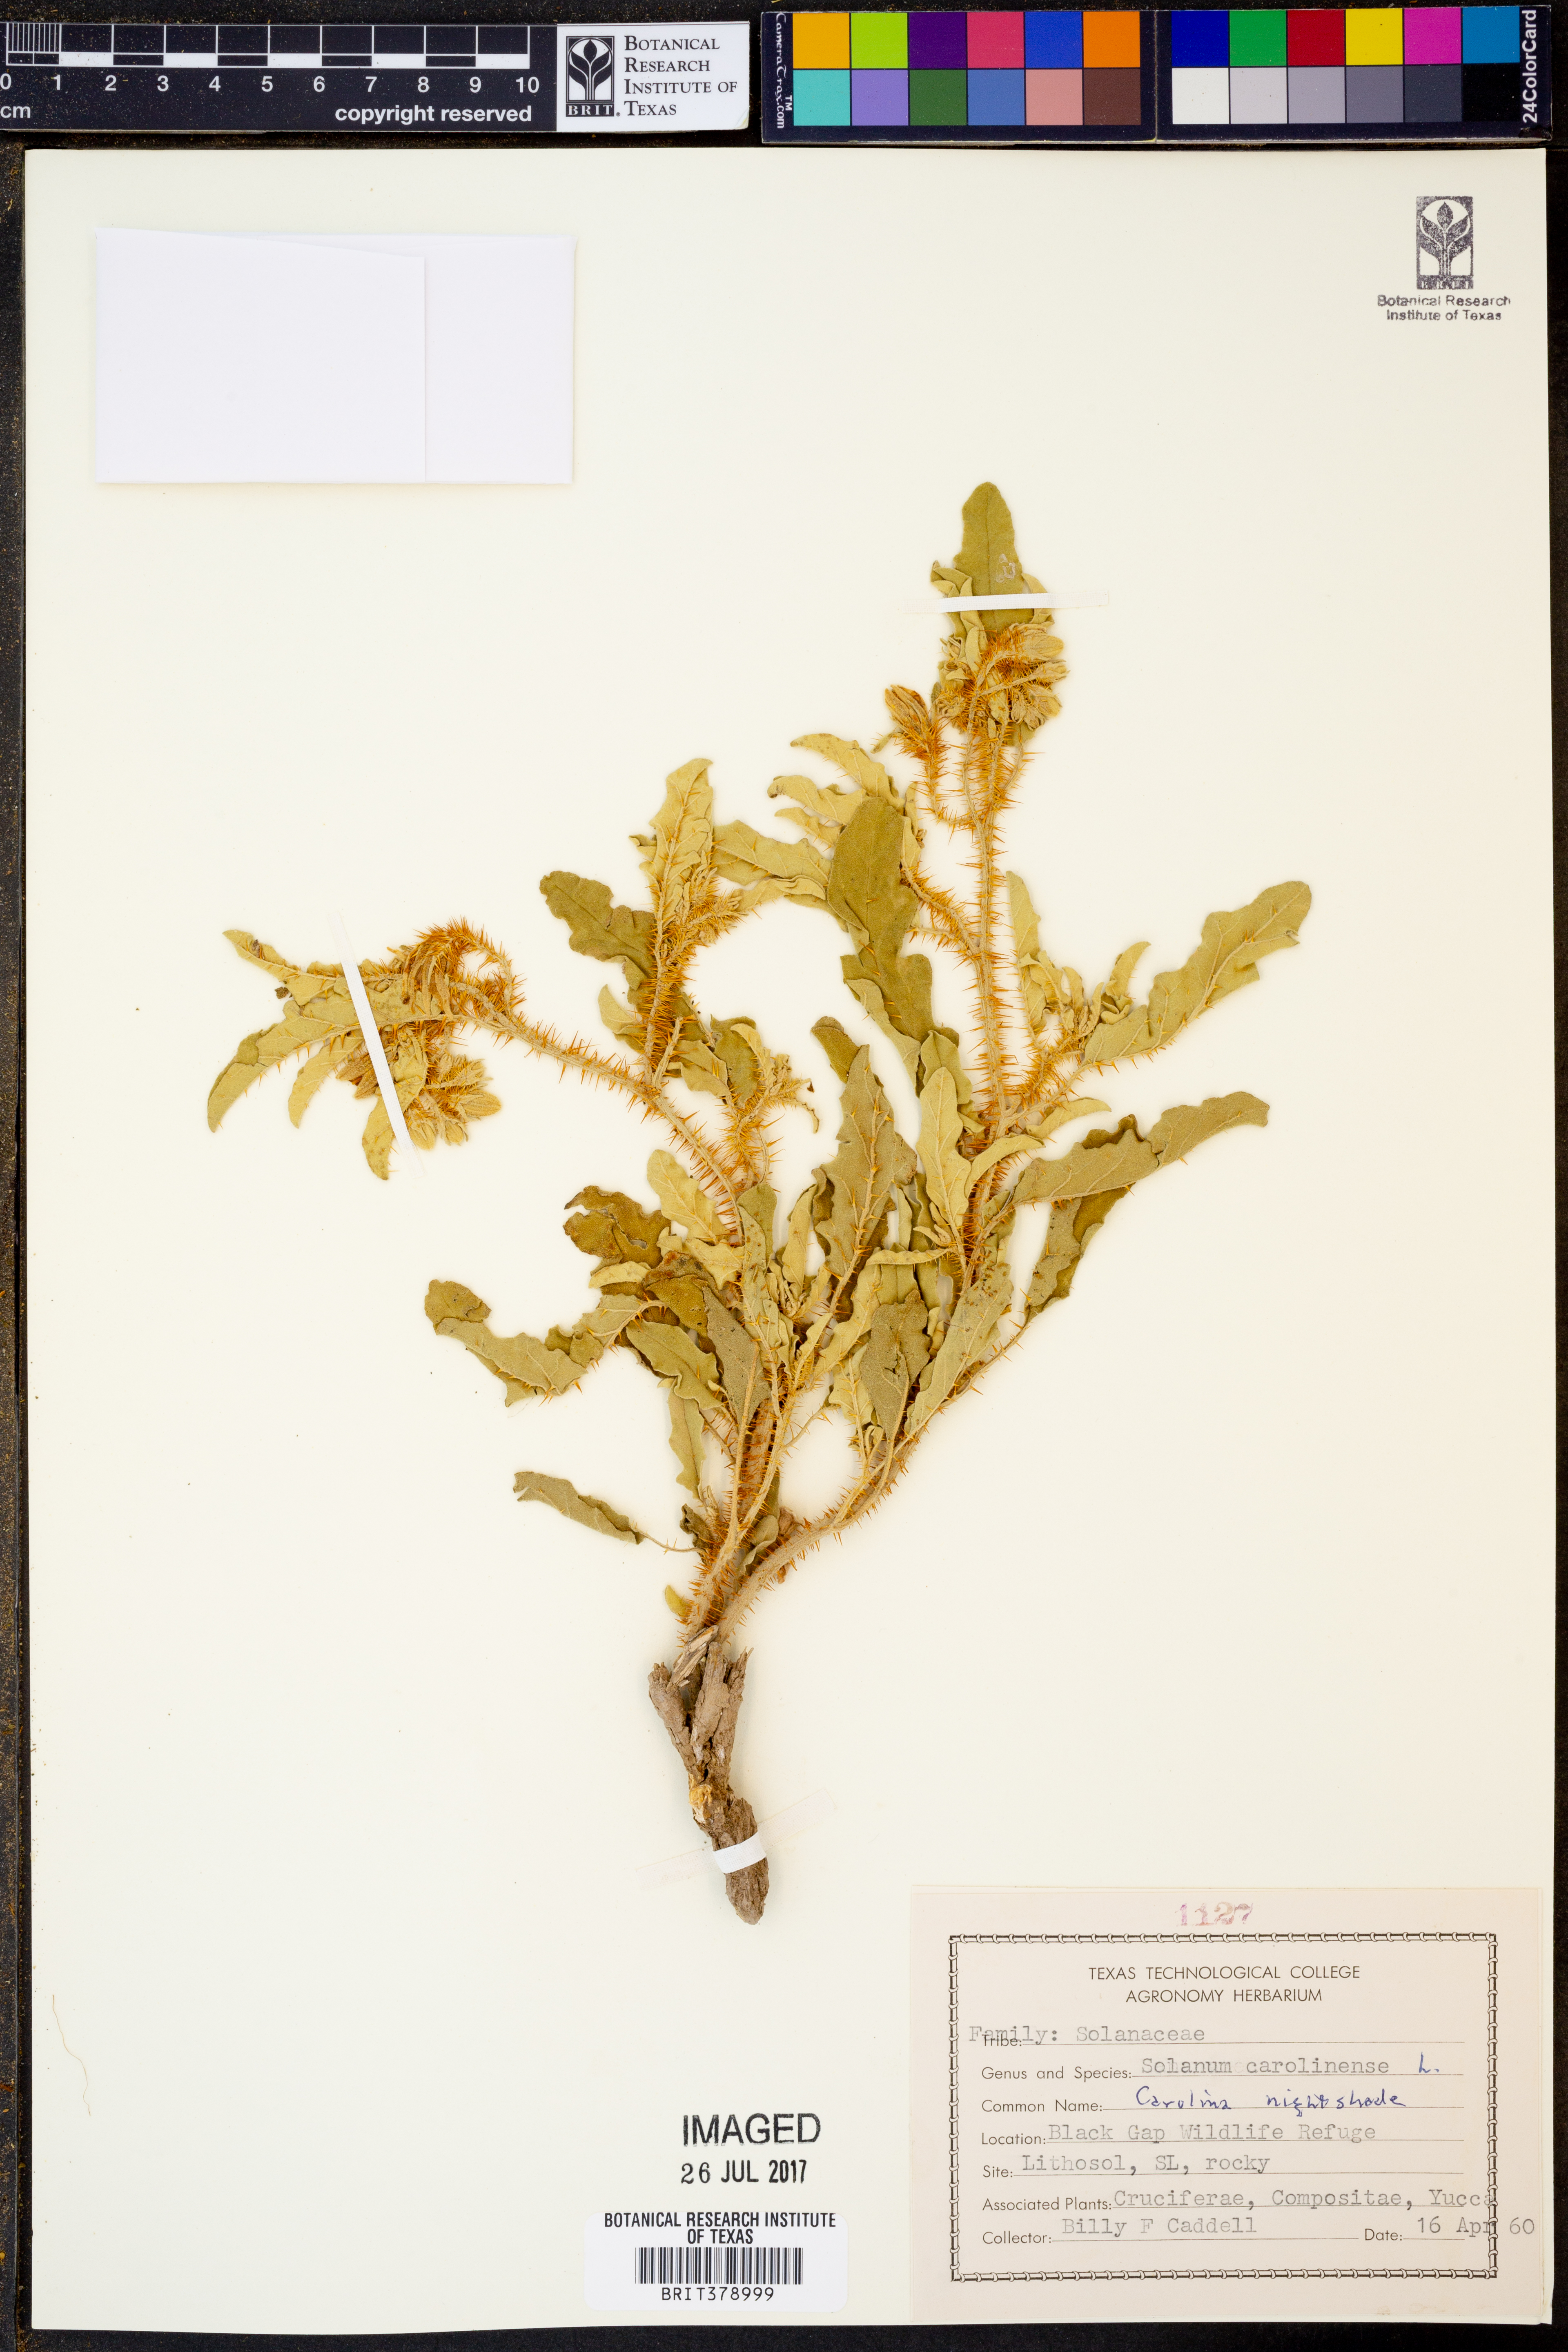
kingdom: Plantae
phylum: Tracheophyta
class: Magnoliopsida
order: Solanales
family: Solanaceae
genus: Solanum
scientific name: Solanum carolinense
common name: Horse-nettle
